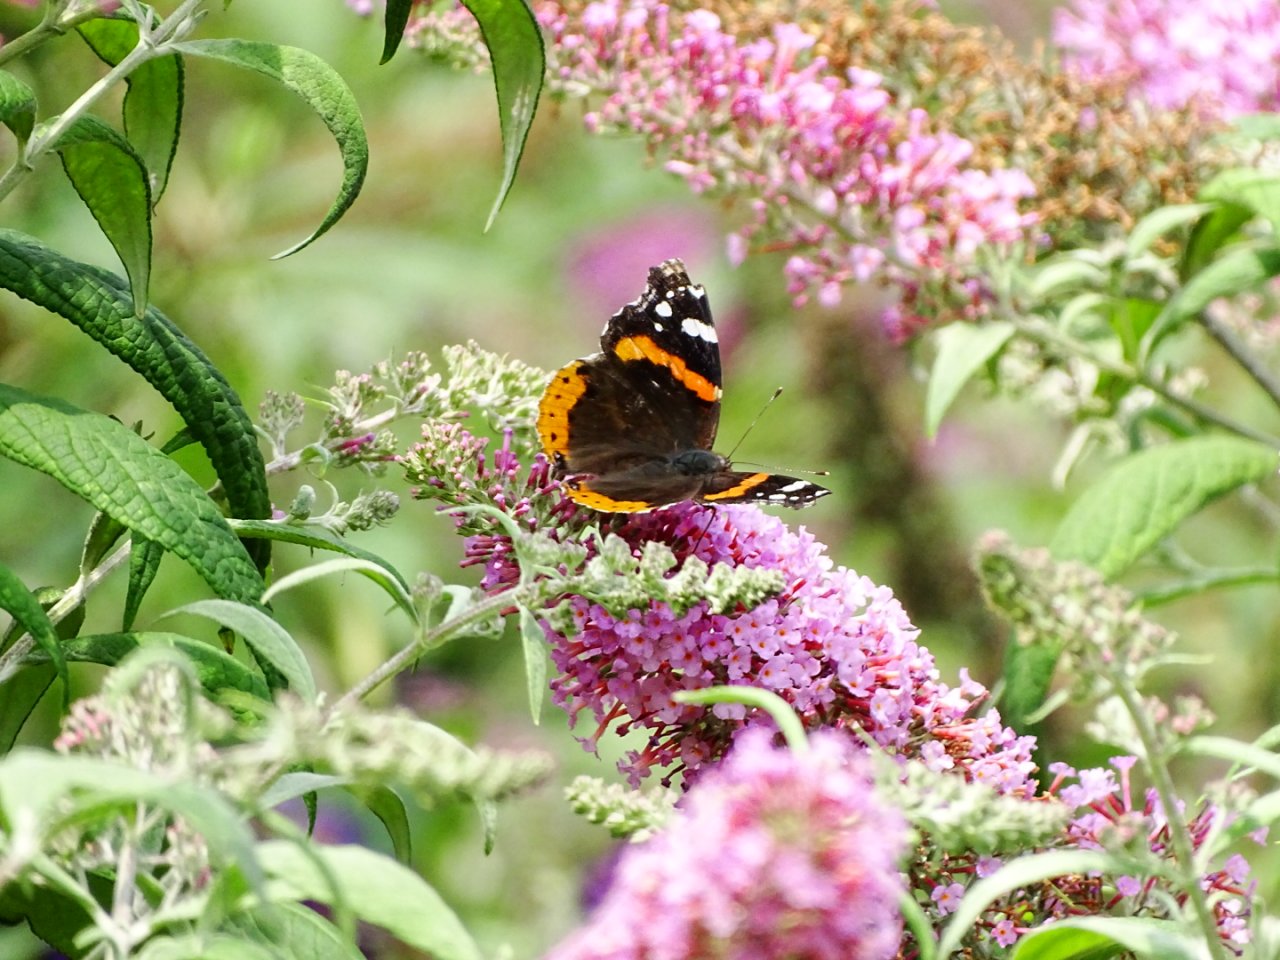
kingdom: Animalia
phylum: Arthropoda
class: Insecta
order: Lepidoptera
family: Nymphalidae
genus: Vanessa
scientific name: Vanessa atalanta
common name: Red Admiral
